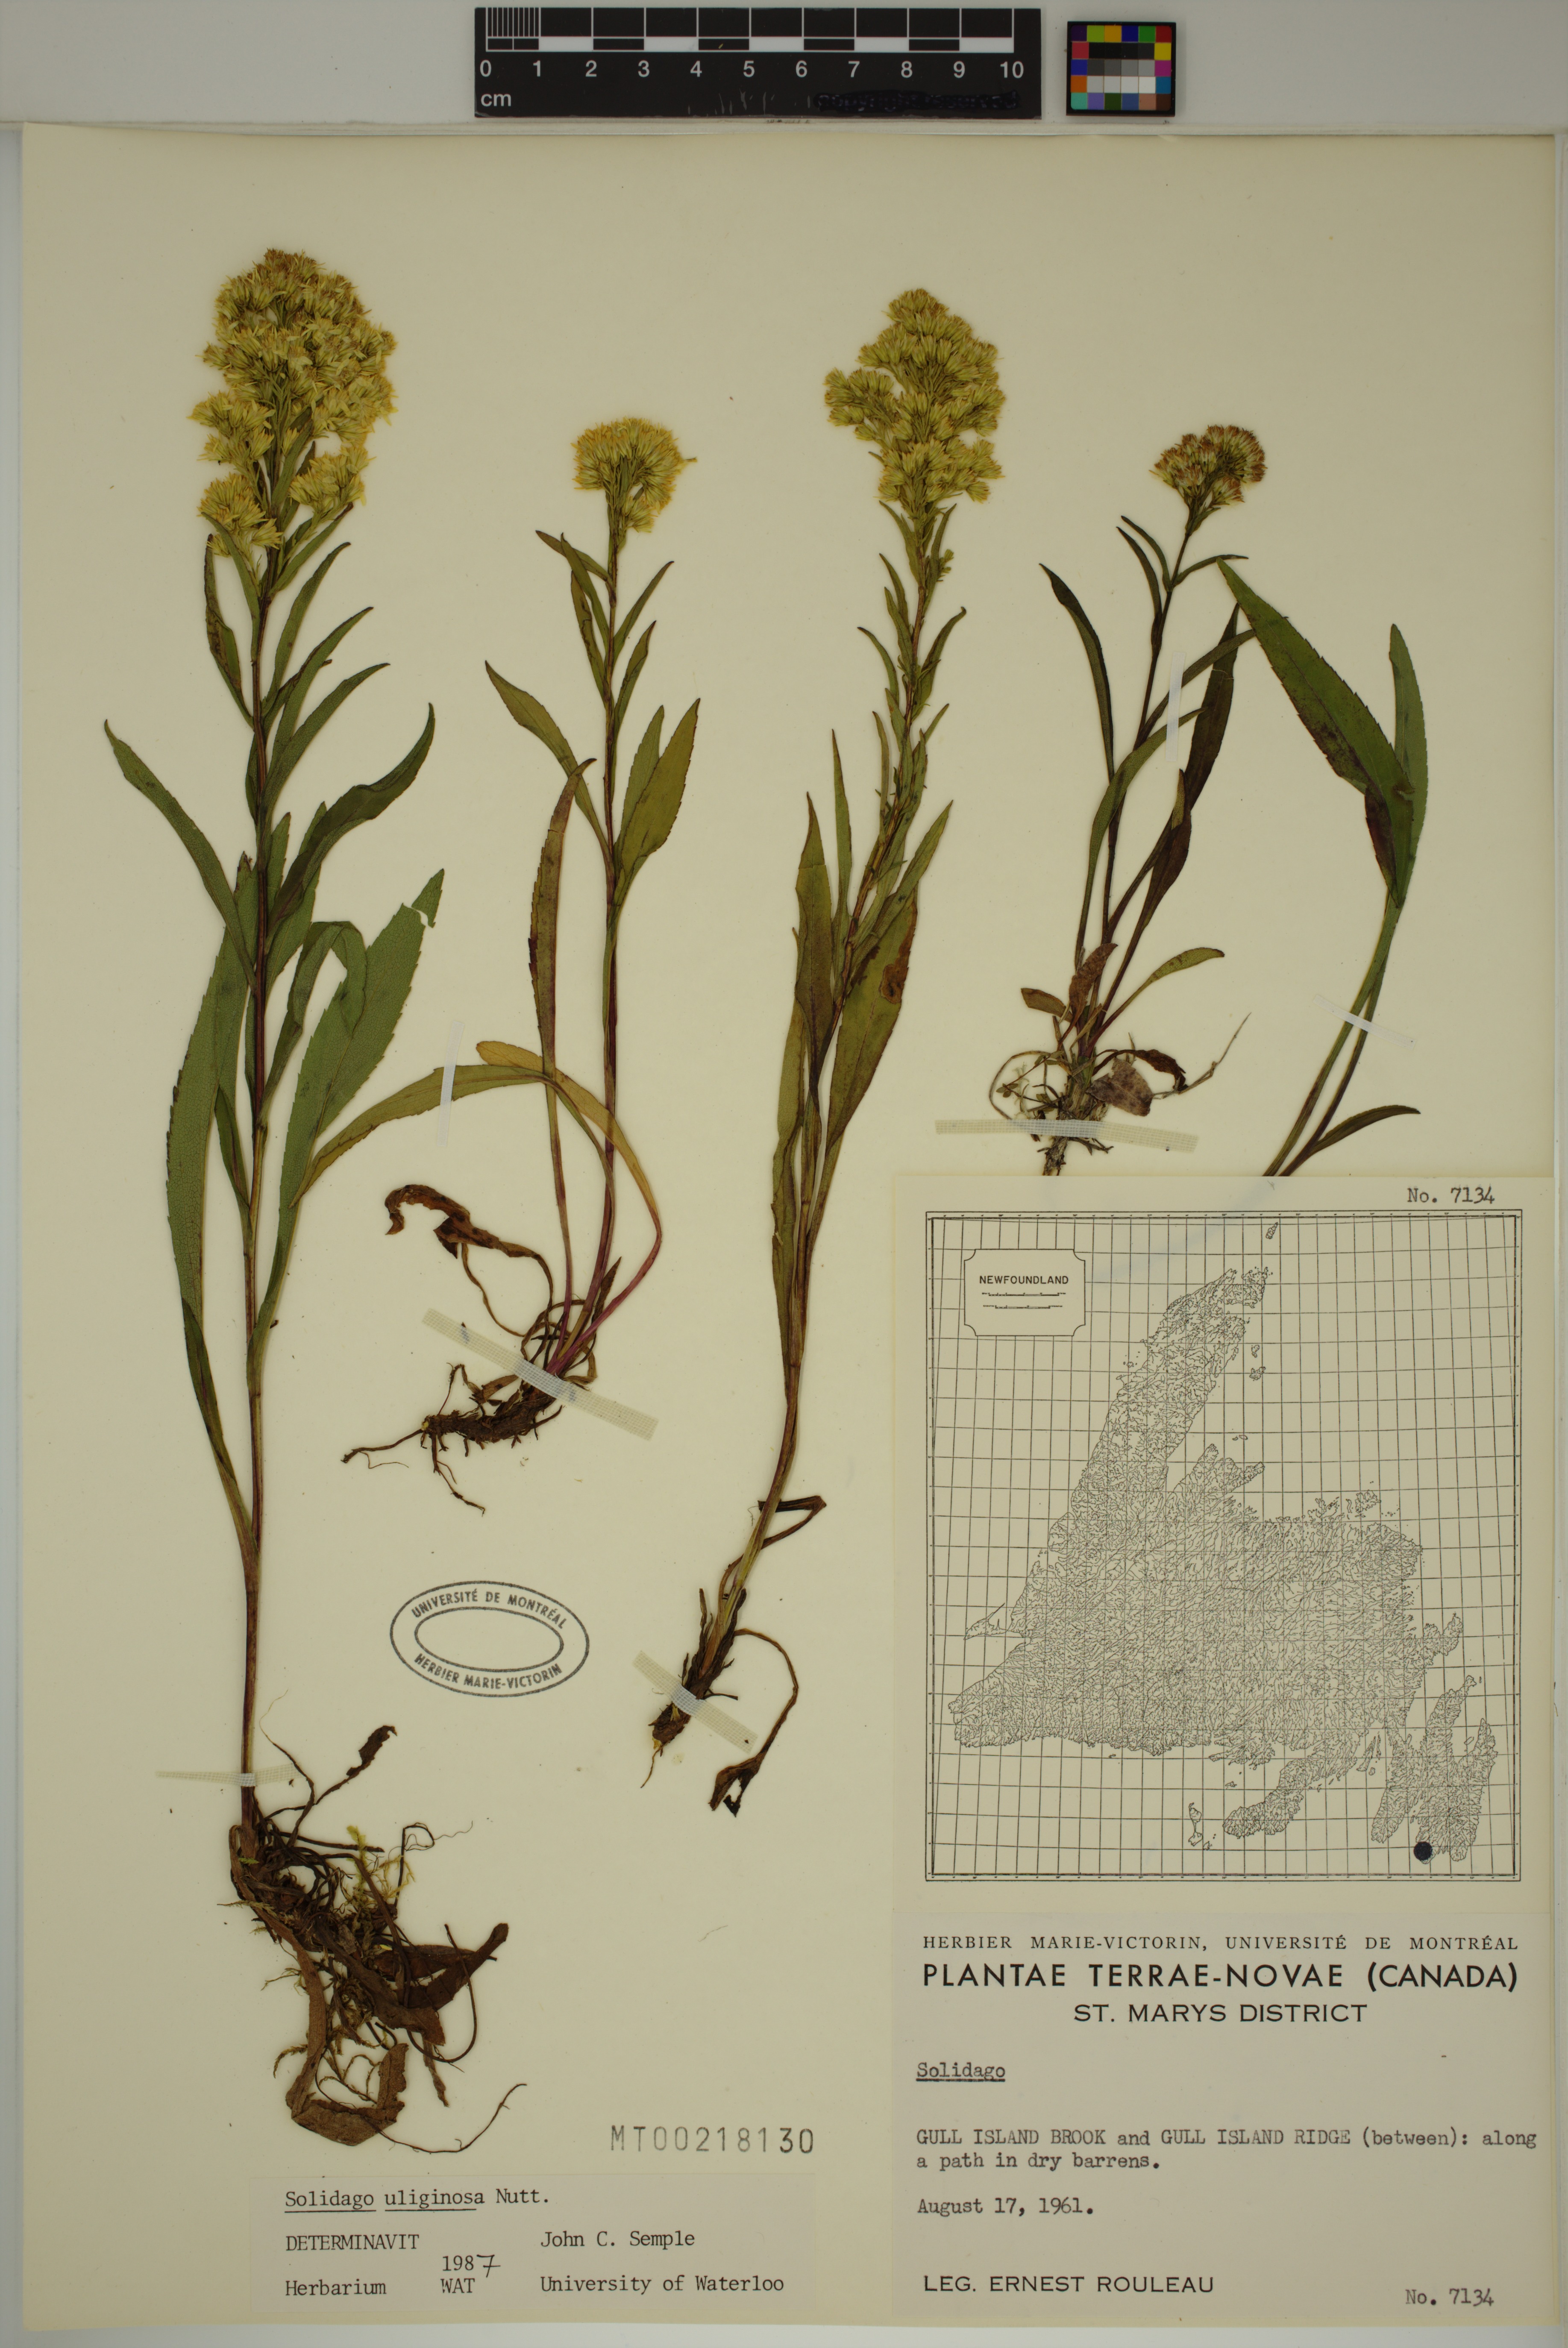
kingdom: Plantae
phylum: Tracheophyta
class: Magnoliopsida
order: Asterales
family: Asteraceae
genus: Solidago
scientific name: Solidago uliginosa
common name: Bog goldenrod
